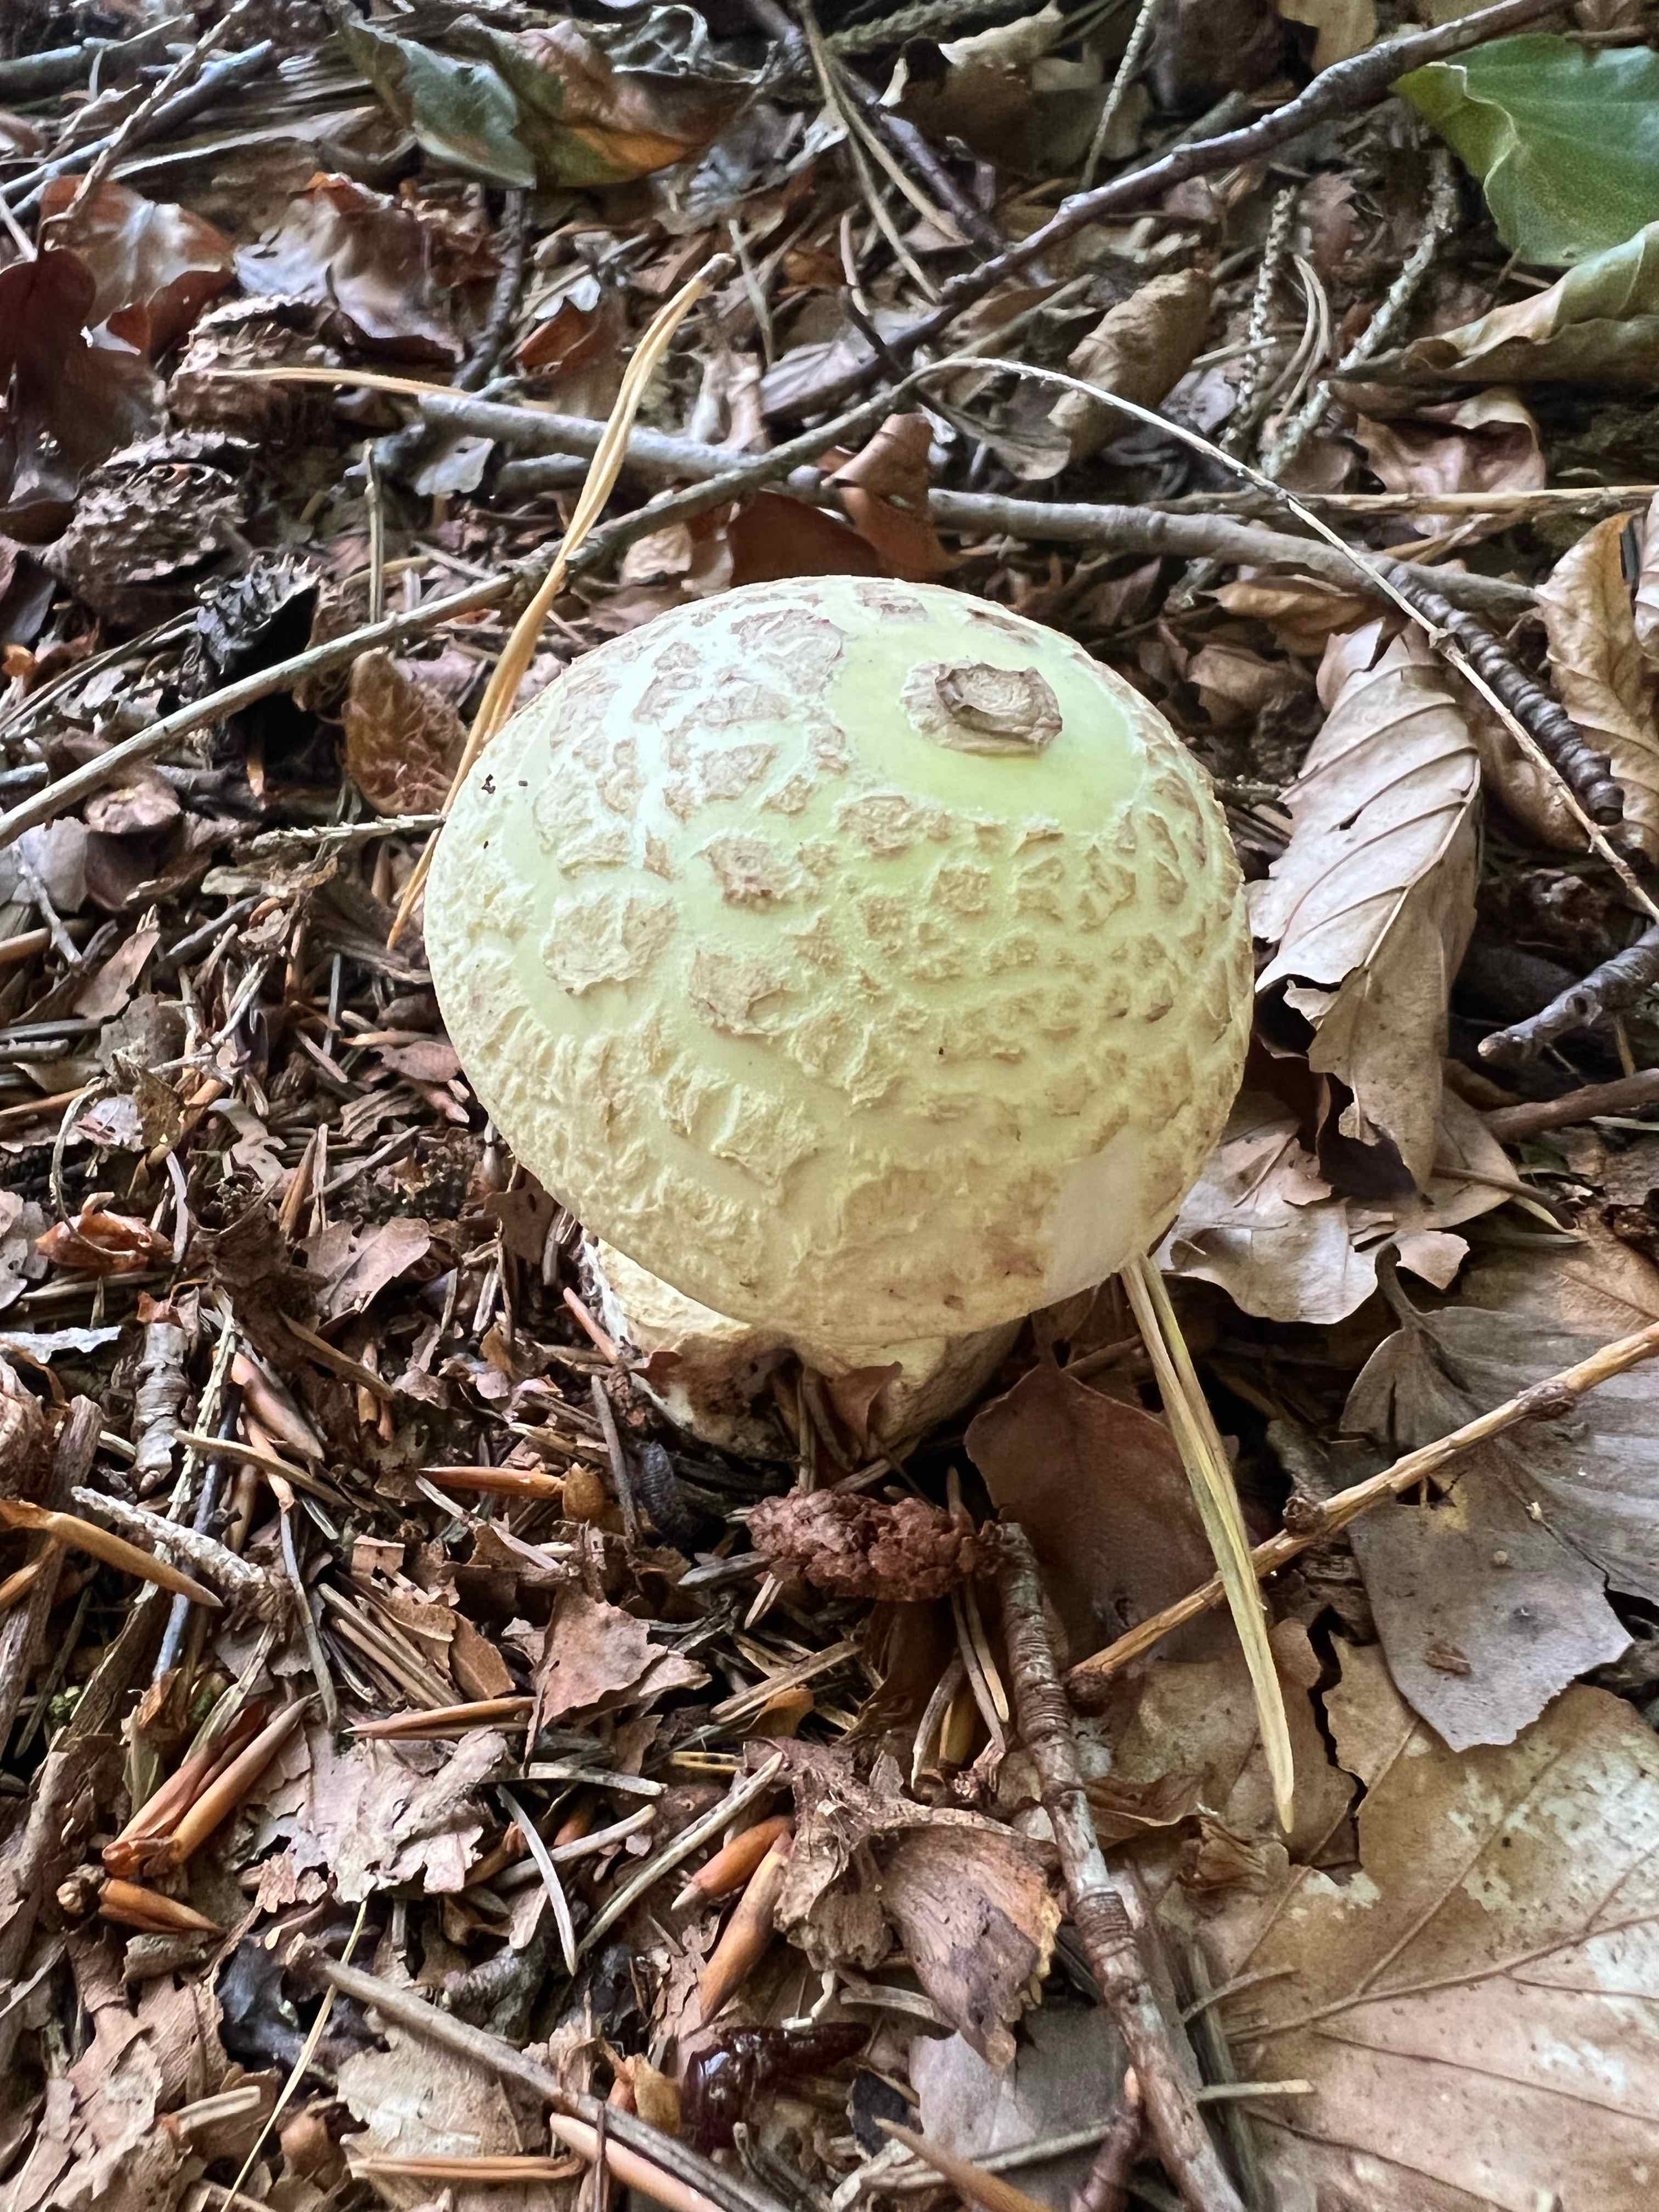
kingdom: Fungi
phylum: Basidiomycota
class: Agaricomycetes
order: Agaricales
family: Amanitaceae
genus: Amanita
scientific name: Amanita citrina
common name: kugleknoldet fluesvamp
